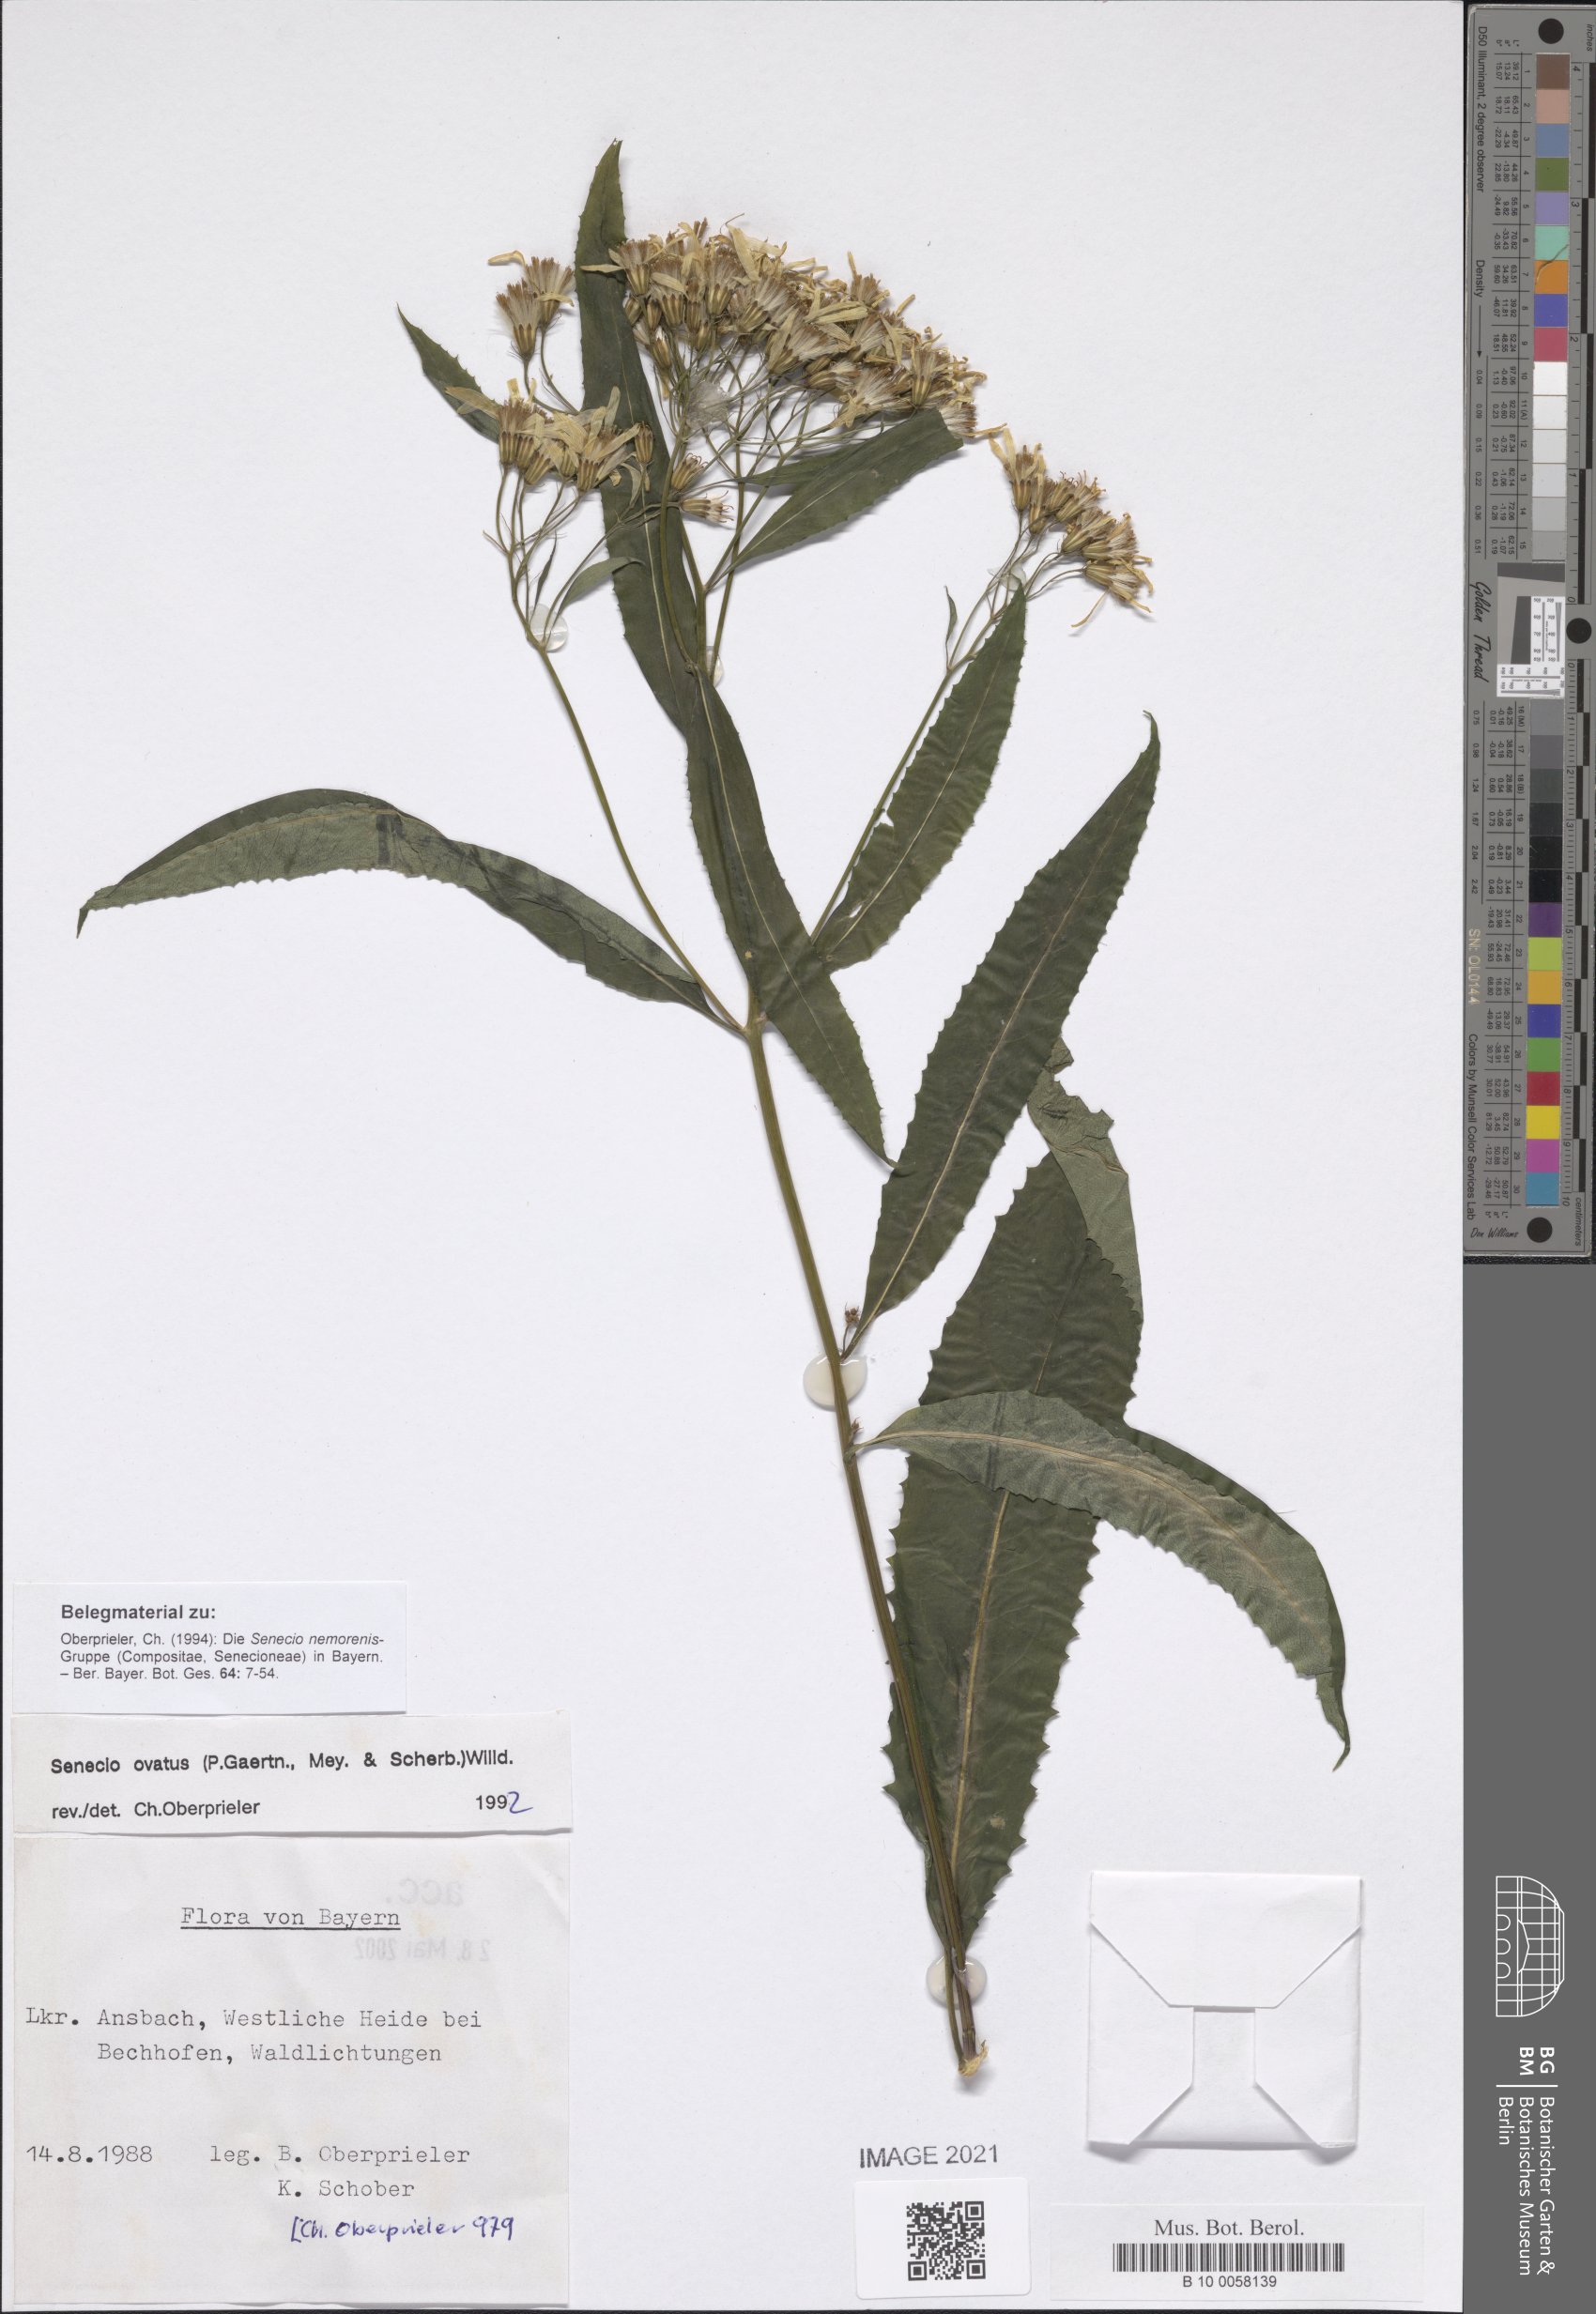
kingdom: Plantae
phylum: Tracheophyta
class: Magnoliopsida
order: Asterales
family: Asteraceae
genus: Senecio
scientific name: Senecio ovatus
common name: Wood ragwort
